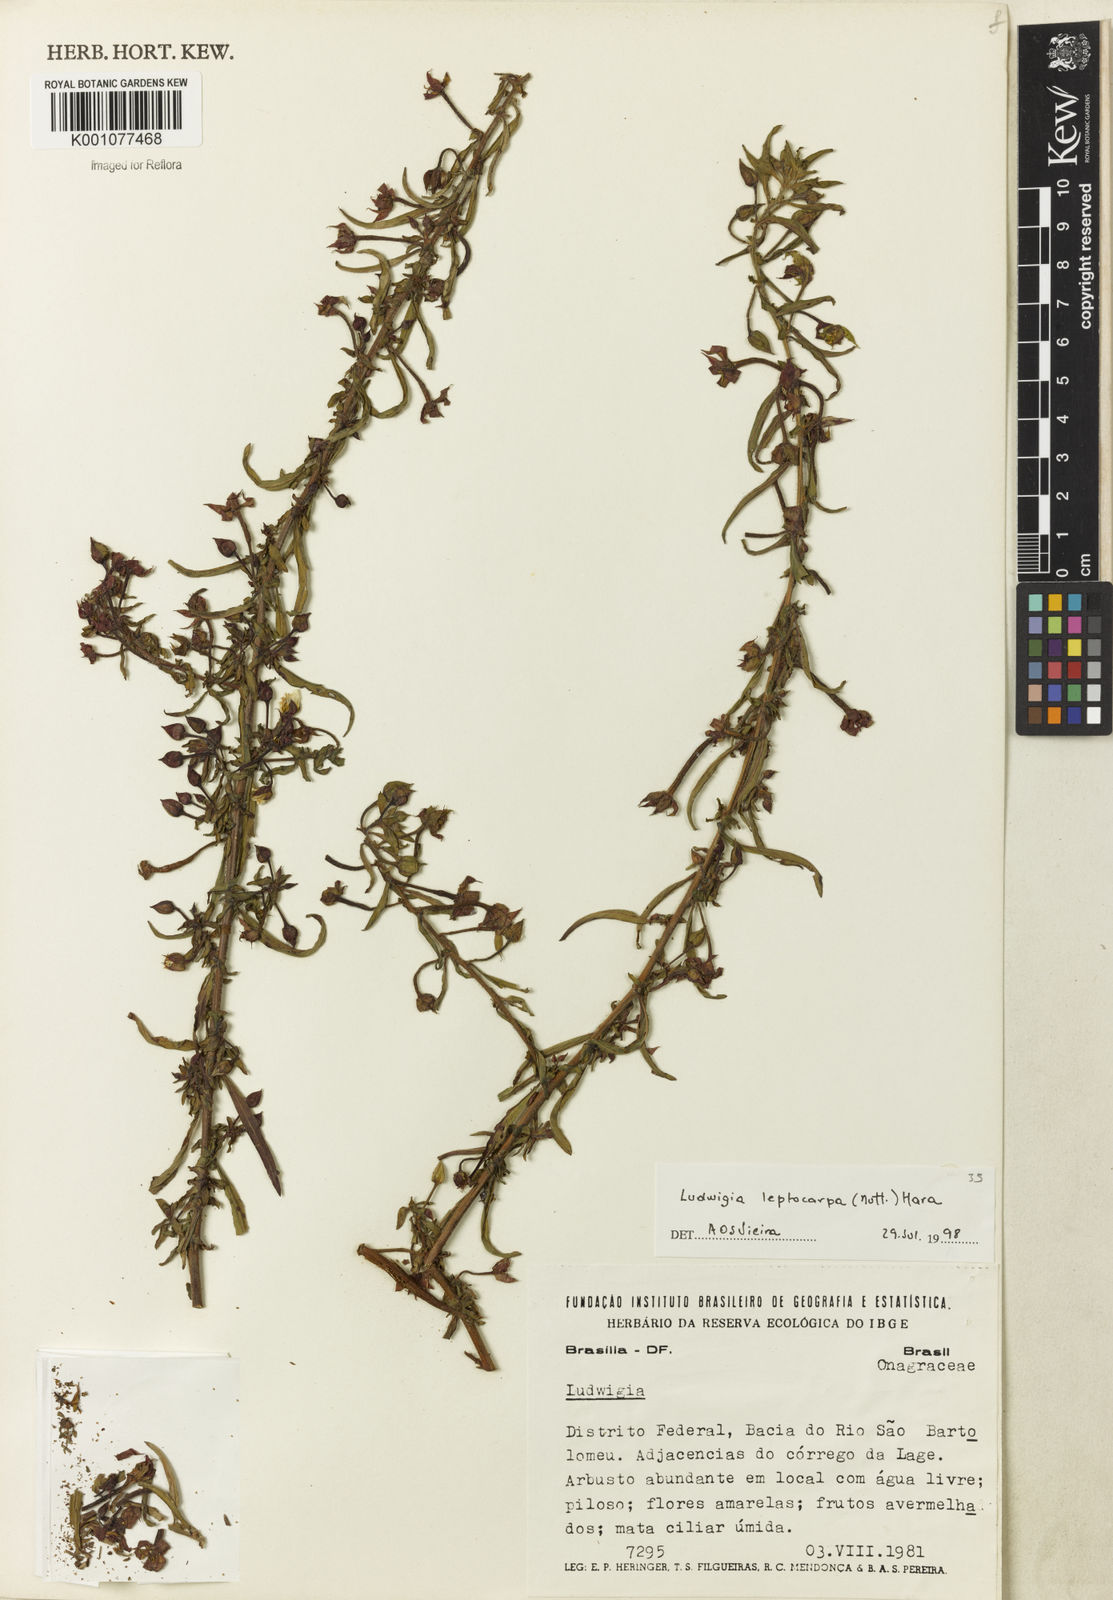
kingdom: Plantae
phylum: Tracheophyta
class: Magnoliopsida
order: Myrtales
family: Onagraceae
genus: Ludwigia
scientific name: Ludwigia leptocarpa
